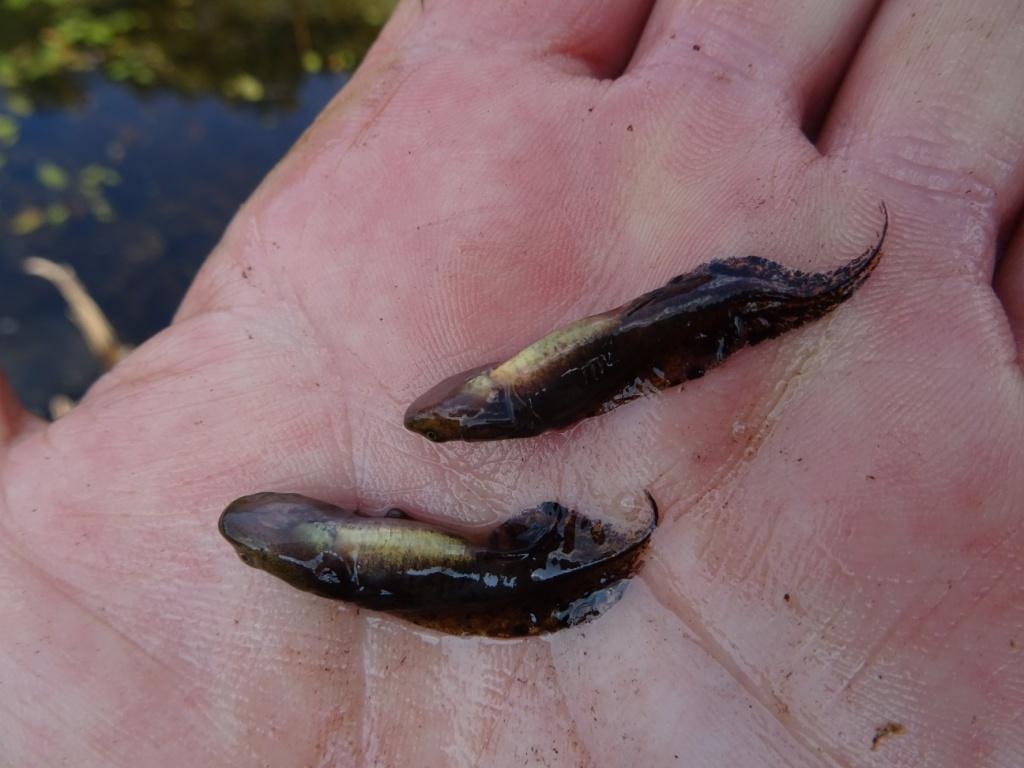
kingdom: Animalia
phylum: Chordata
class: Amphibia
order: Caudata
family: Salamandridae
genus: Triturus
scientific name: Triturus cristatus
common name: Stor vandsalamander
